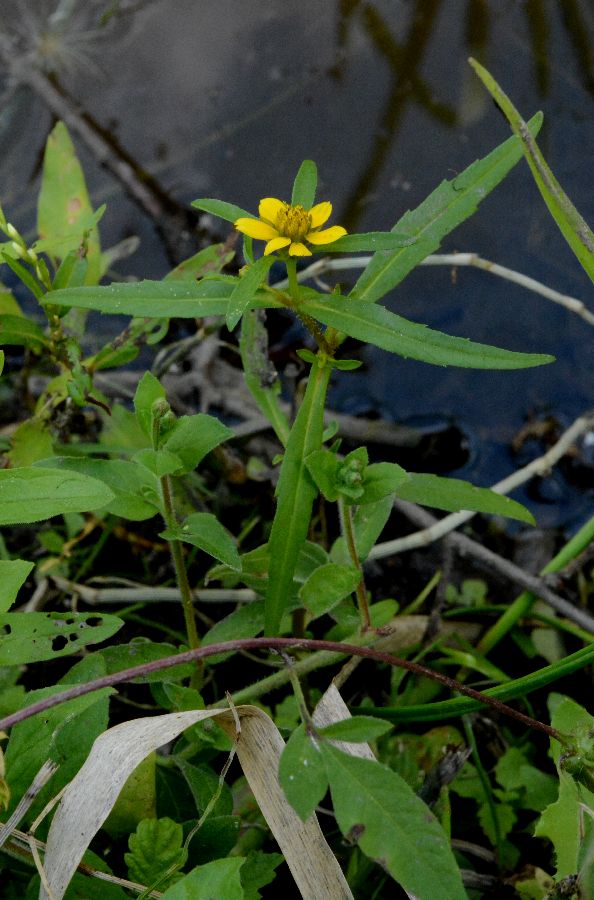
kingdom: Plantae
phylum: Tracheophyta
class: Magnoliopsida
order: Asterales
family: Asteraceae
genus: Bidens
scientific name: Bidens
